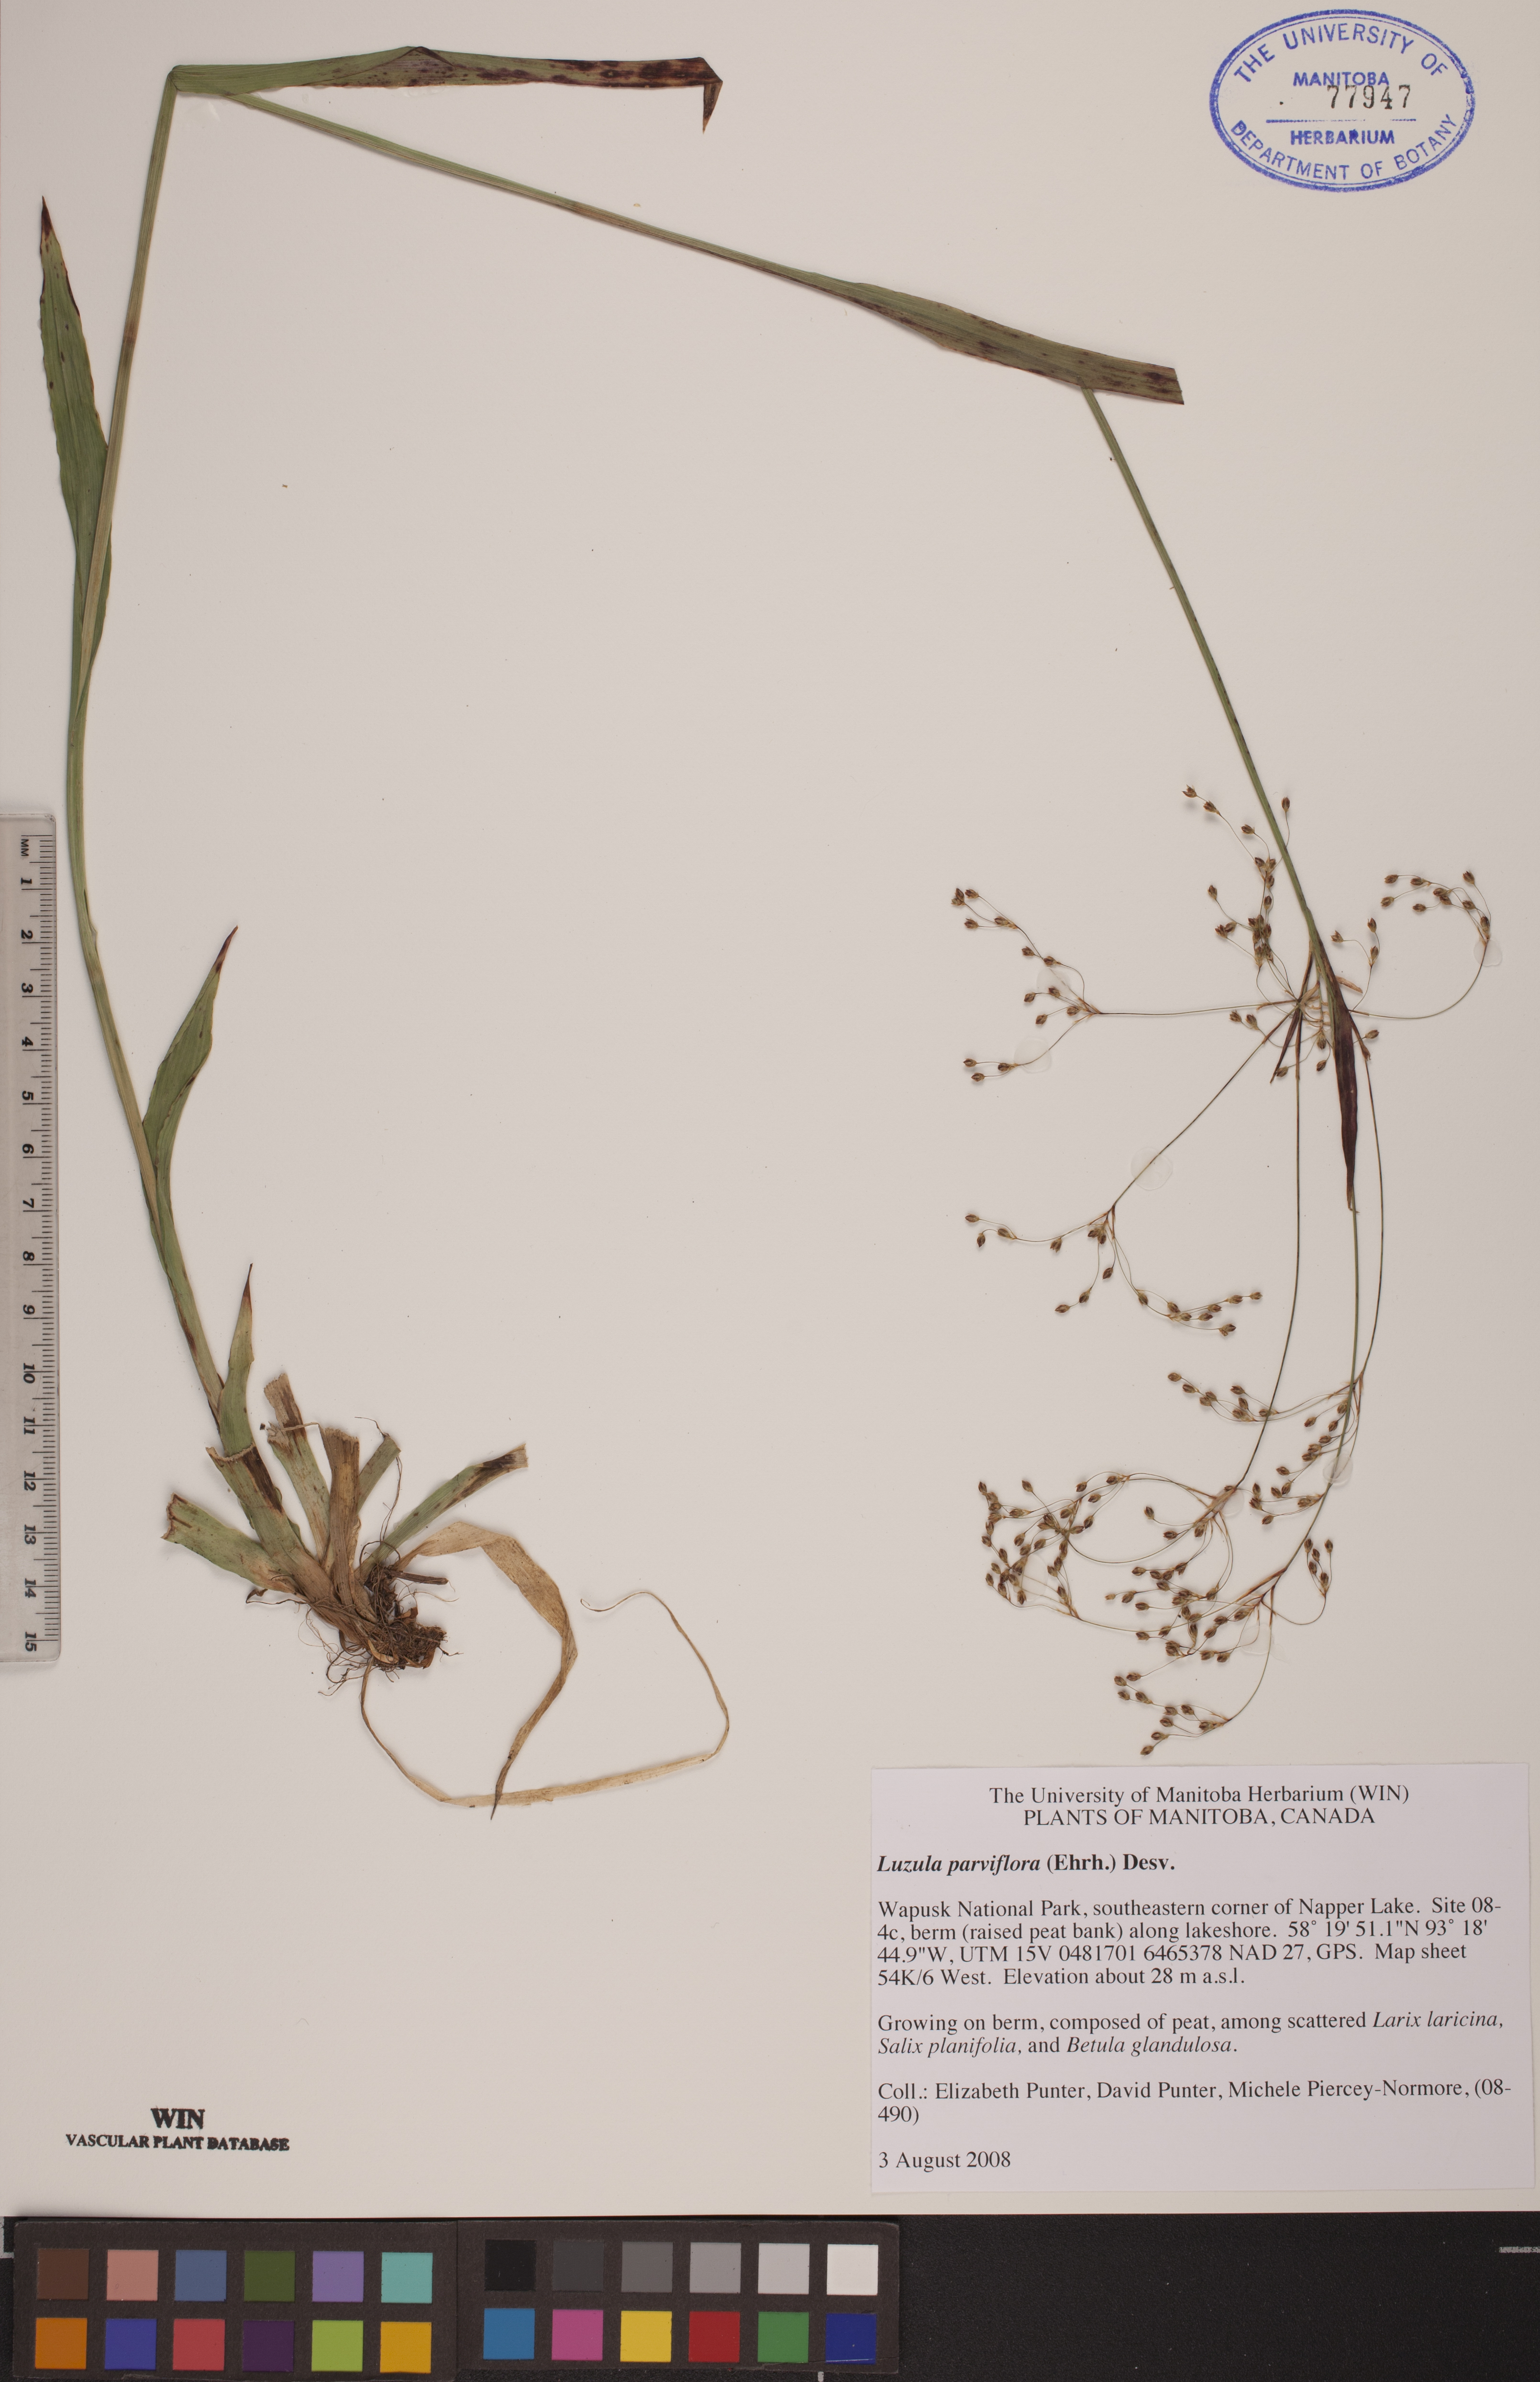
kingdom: Plantae
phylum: Tracheophyta
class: Liliopsida
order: Poales
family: Juncaceae
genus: Luzula
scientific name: Luzula parviflora
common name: Millet woodrush
